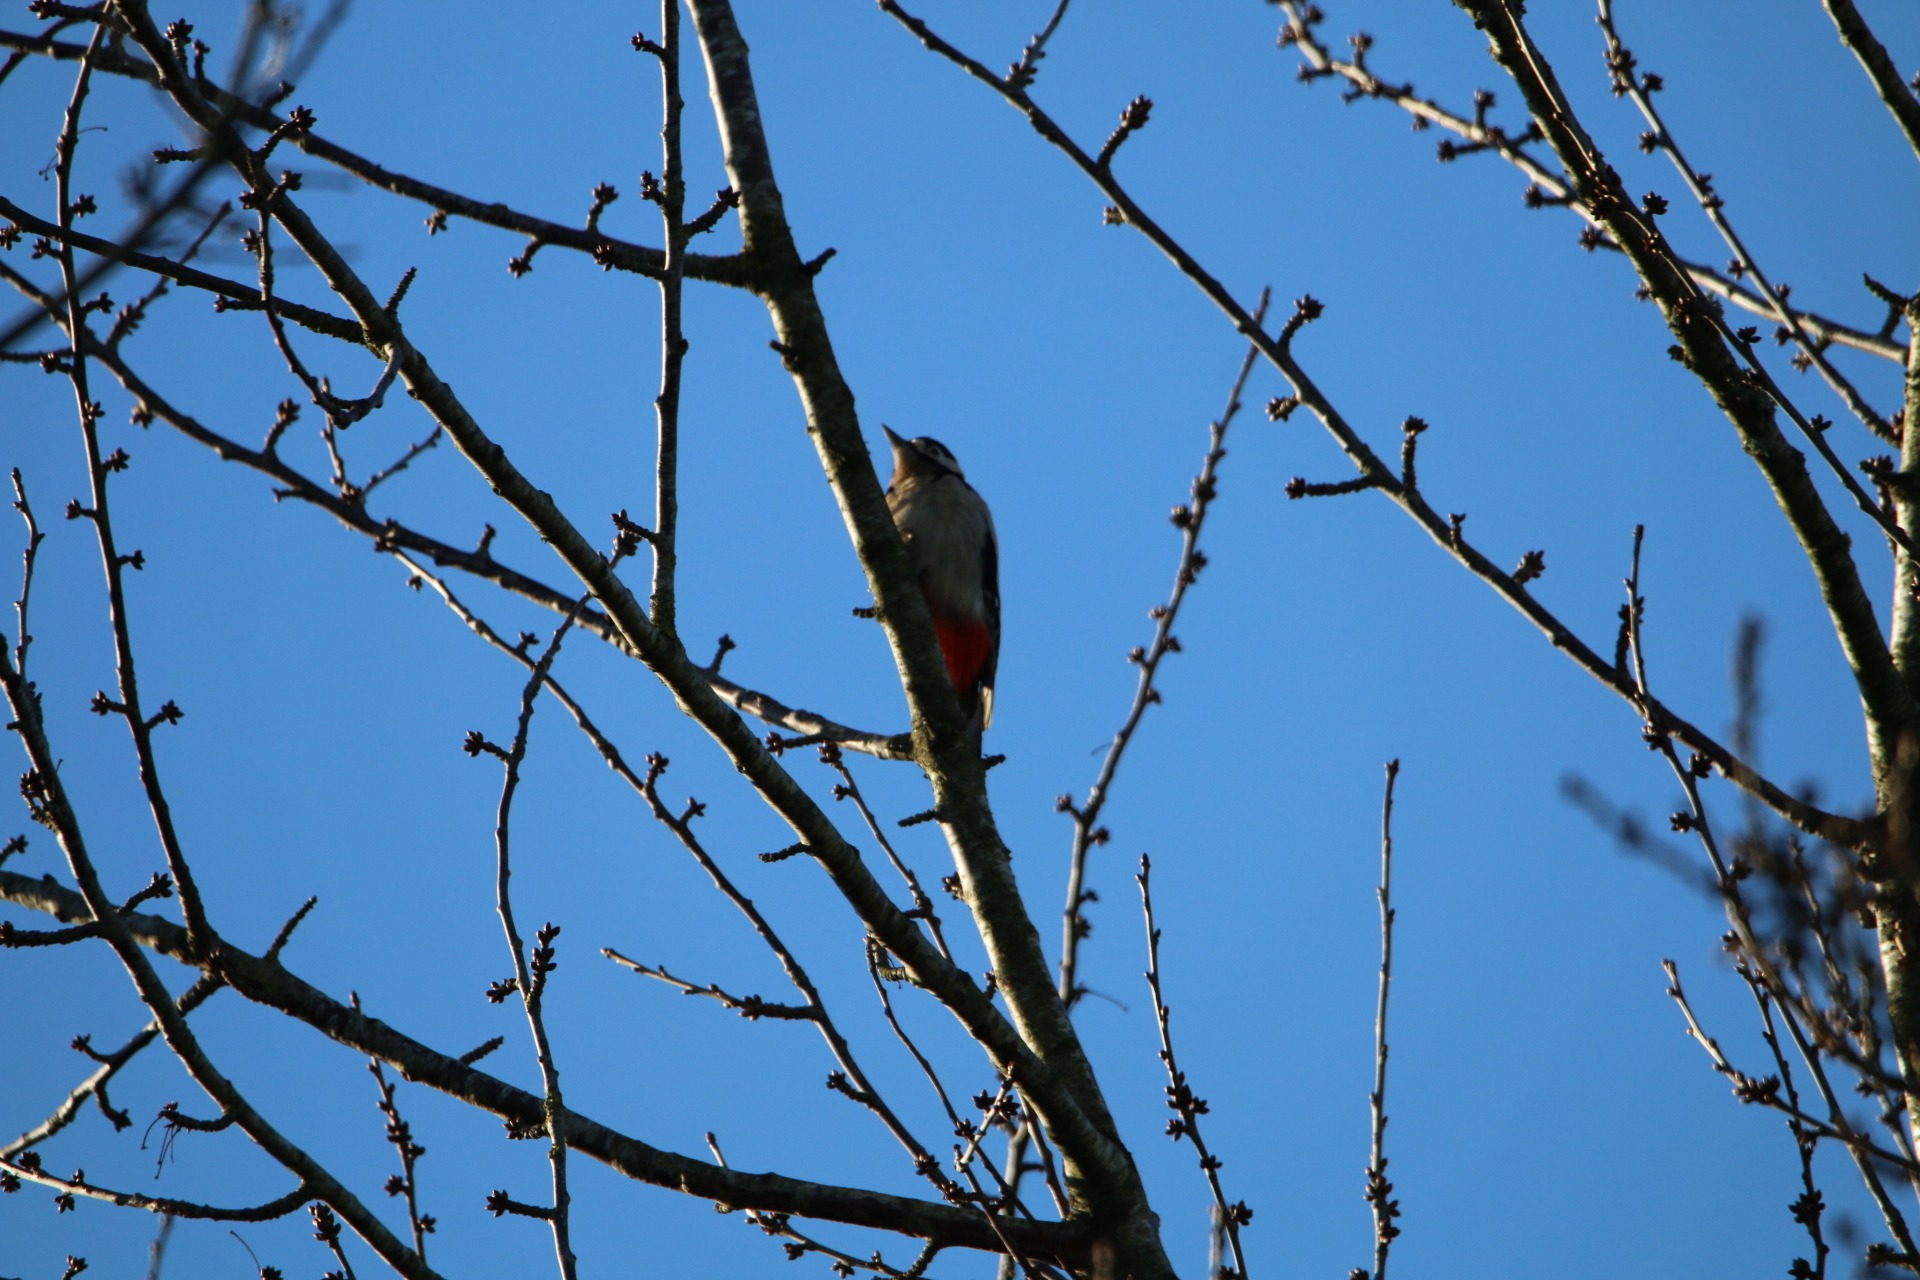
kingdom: Animalia
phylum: Chordata
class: Aves
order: Piciformes
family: Picidae
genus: Dendrocopos
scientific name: Dendrocopos major
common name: Stor flagspætte
